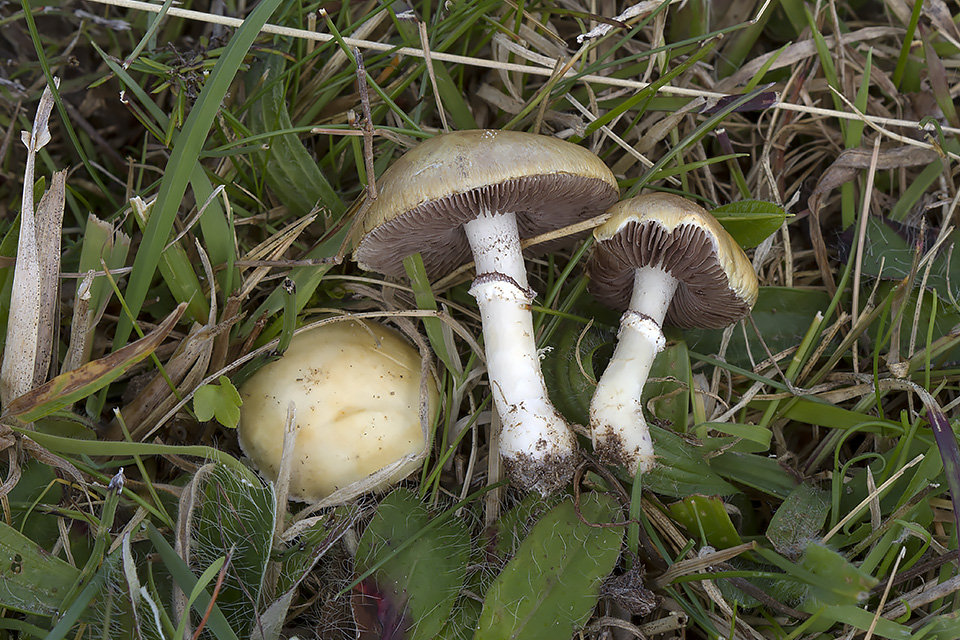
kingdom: Fungi
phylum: Basidiomycota
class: Agaricomycetes
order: Agaricales
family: Hymenogastraceae
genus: Psilocybe
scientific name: Psilocybe coronilla
